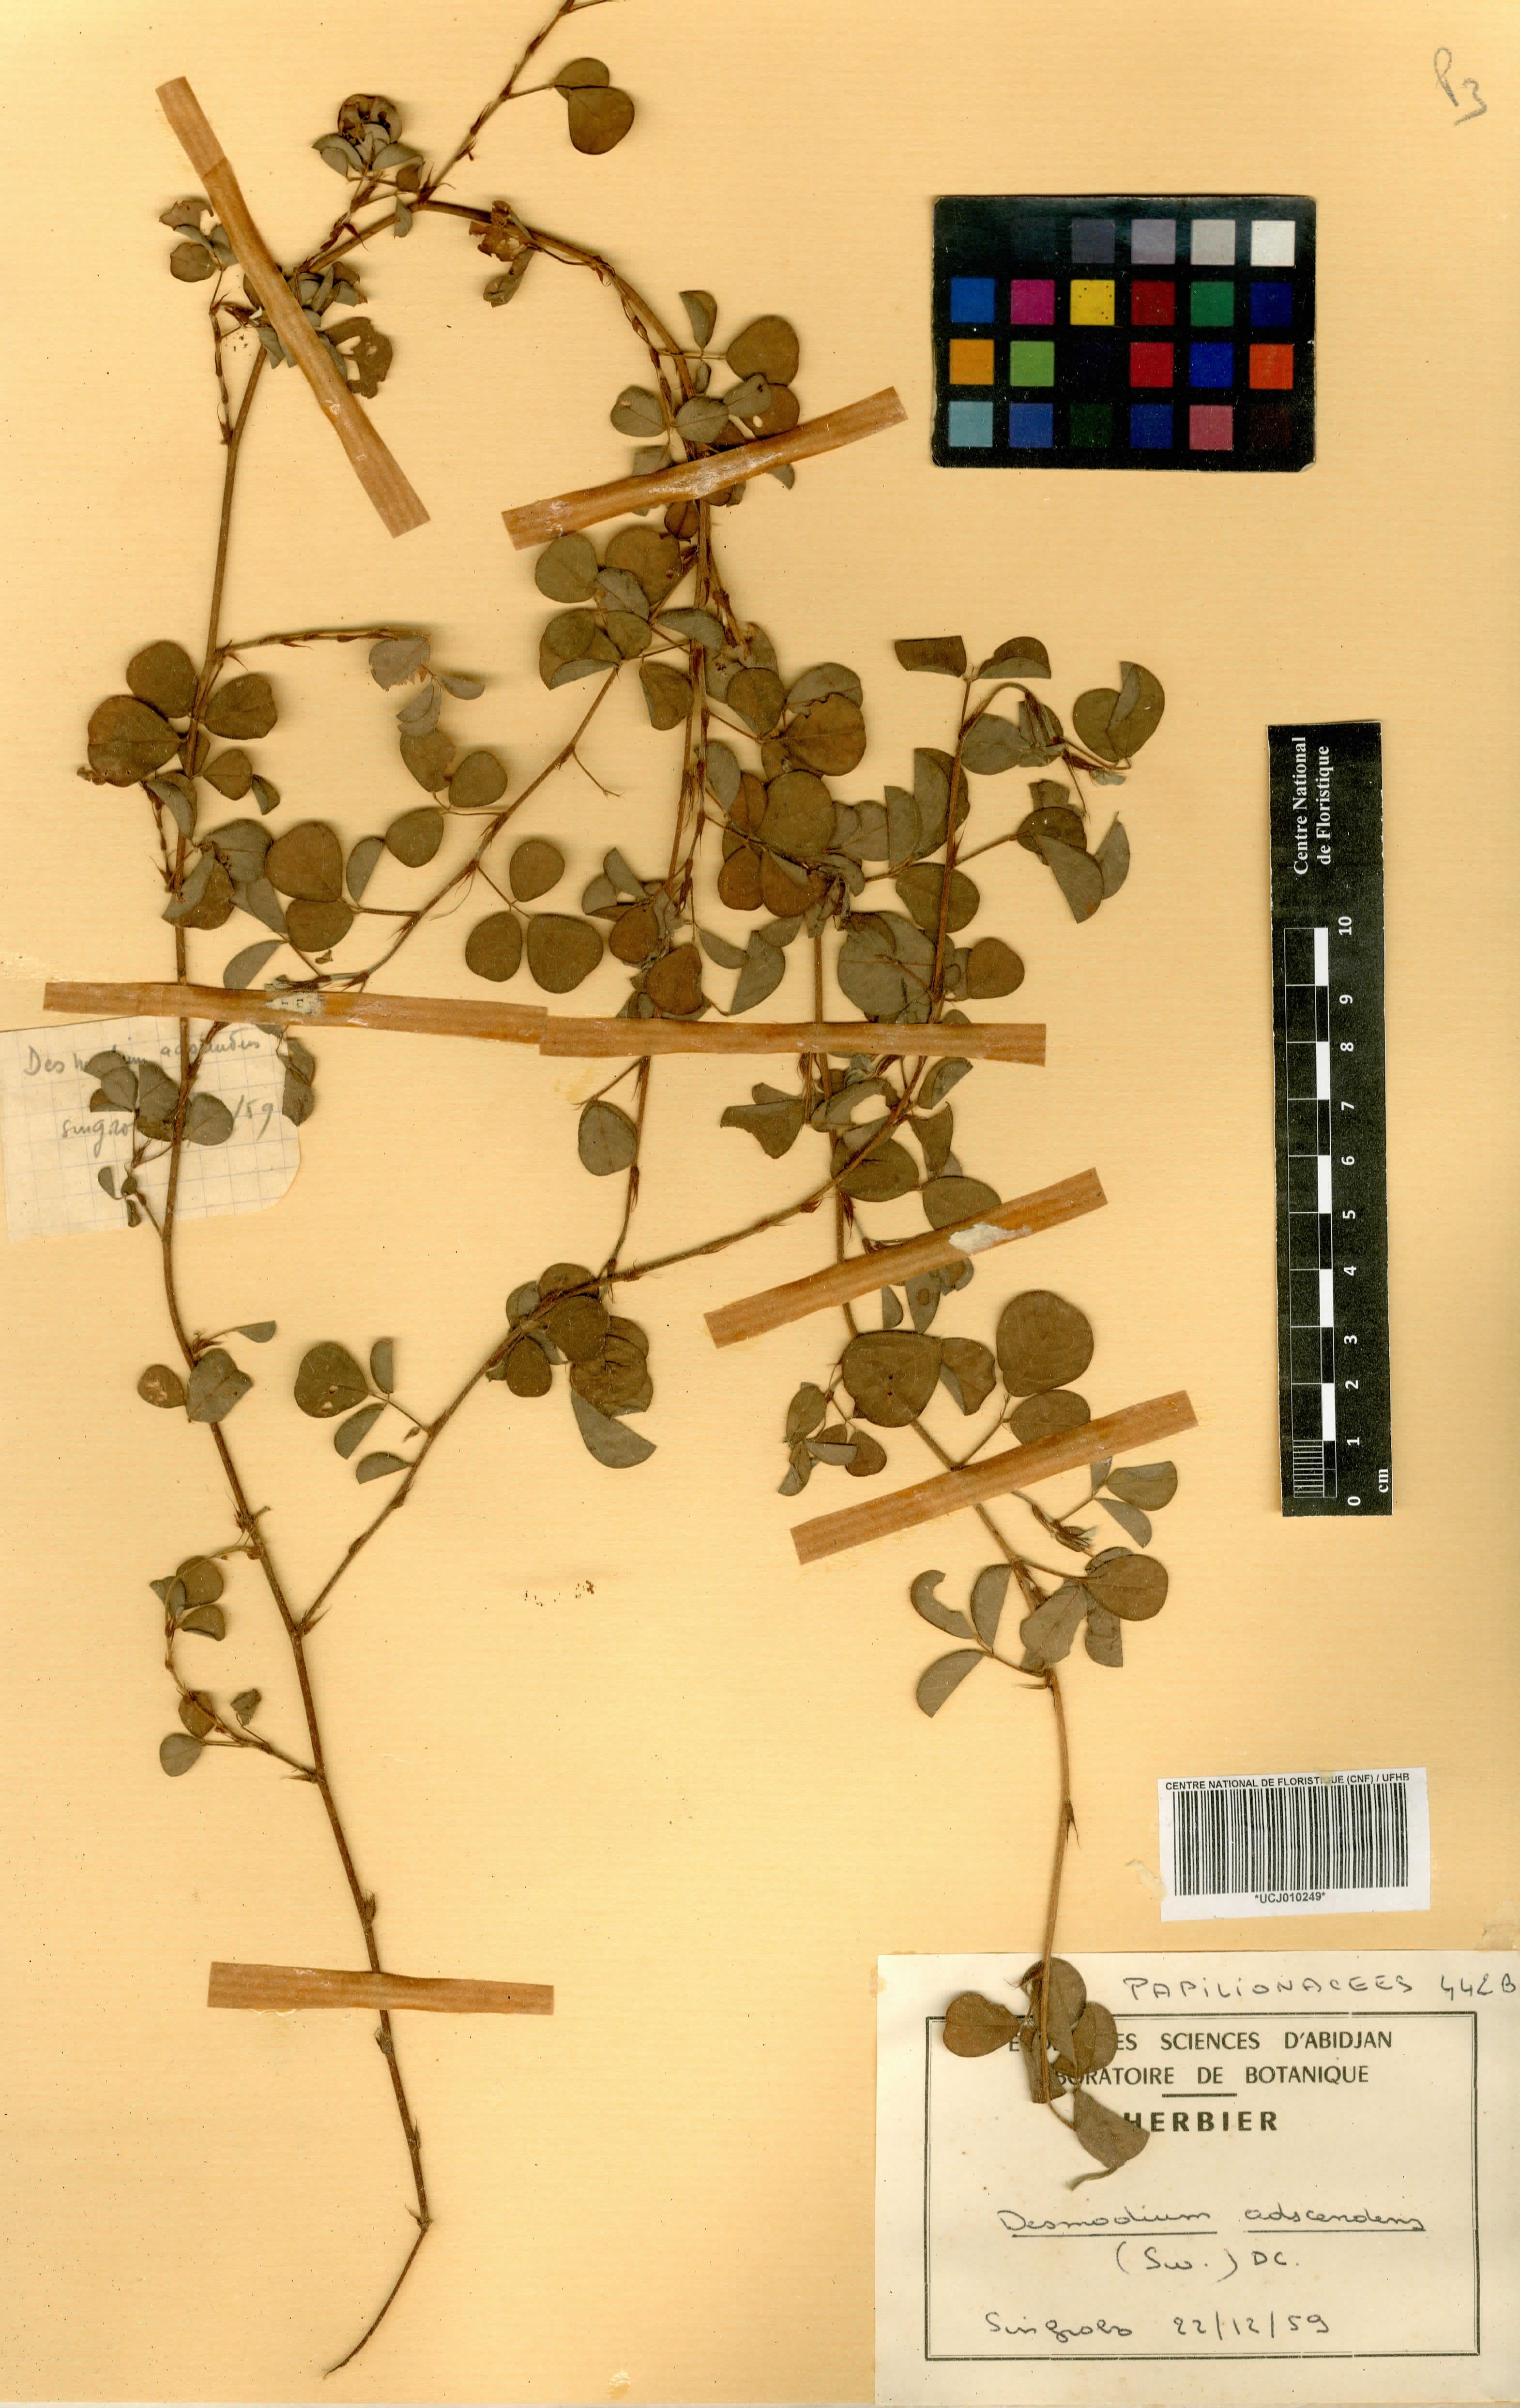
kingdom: Plantae
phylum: Tracheophyta
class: Magnoliopsida
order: Fabales
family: Fabaceae
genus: Grona
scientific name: Grona adscendens
